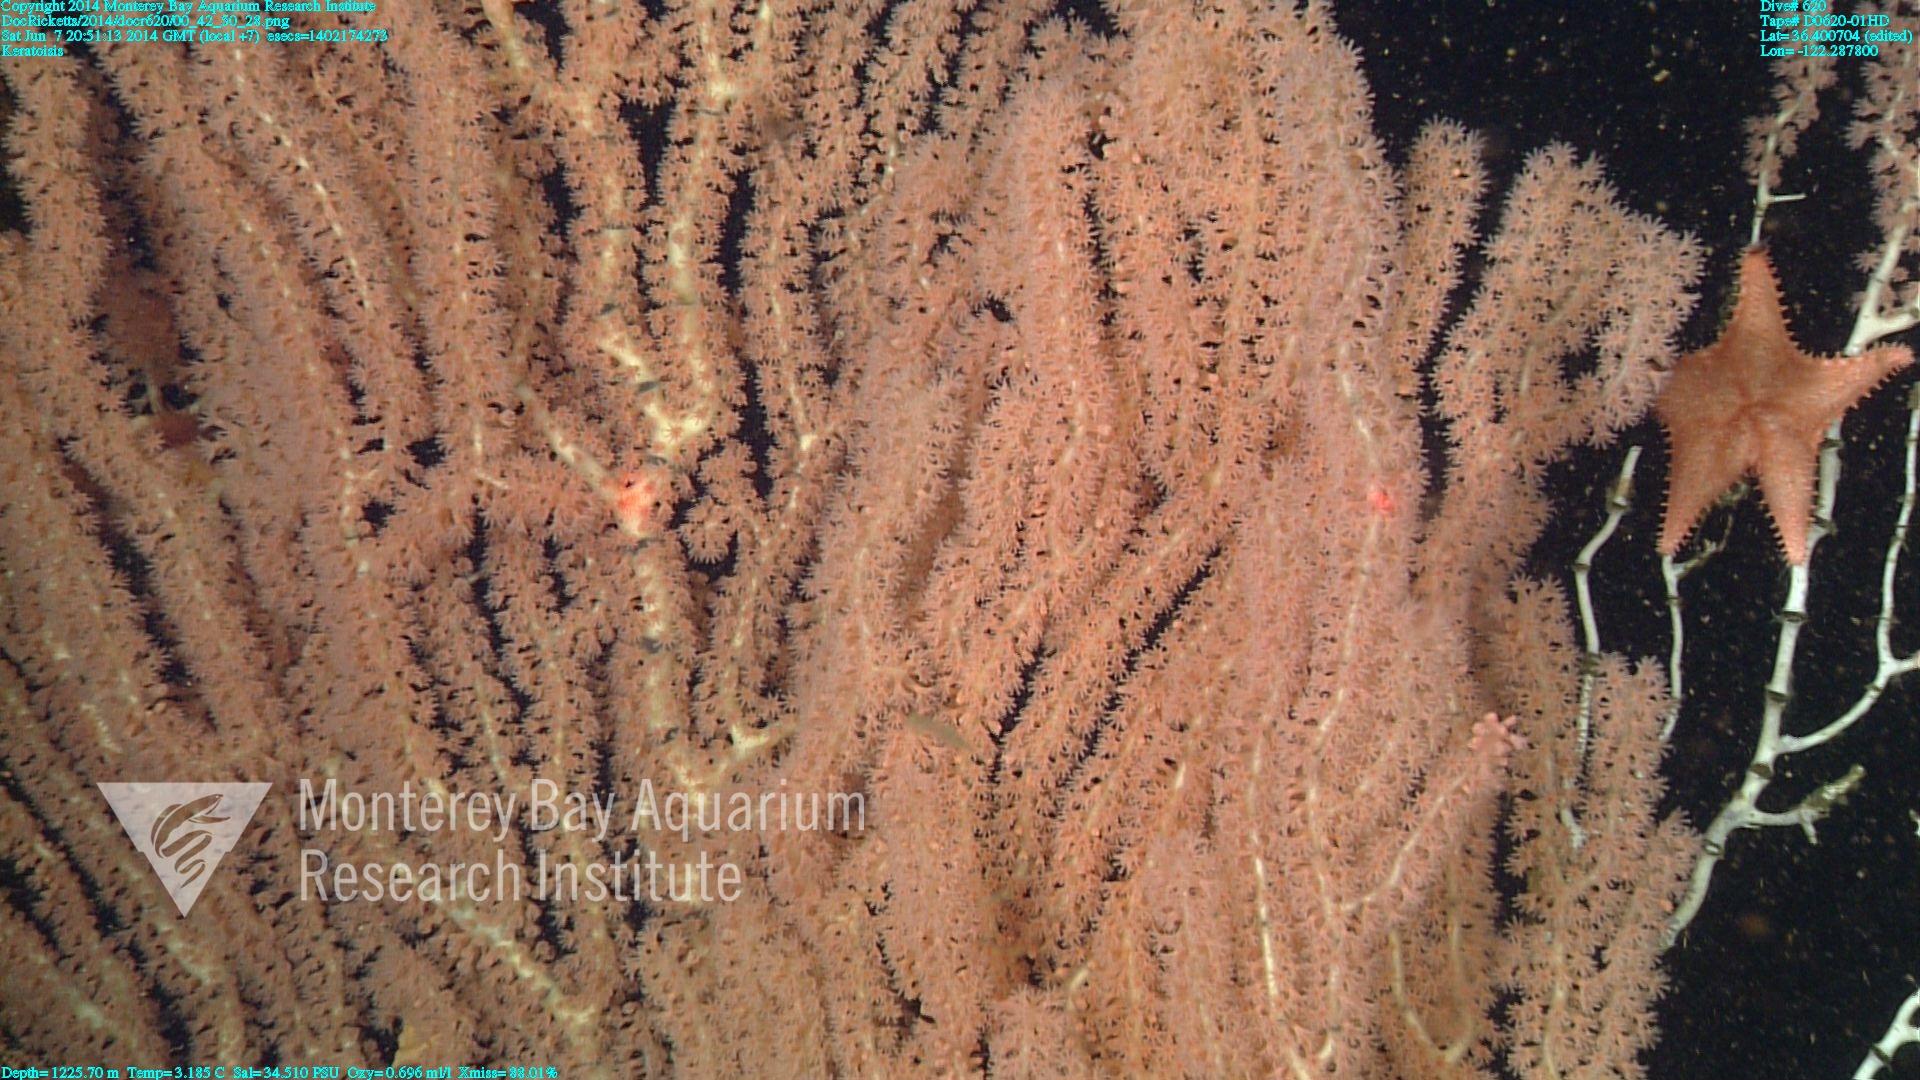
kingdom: Animalia
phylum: Cnidaria
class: Anthozoa
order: Scleralcyonacea
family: Keratoisididae
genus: Keratoisis
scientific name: Keratoisis
